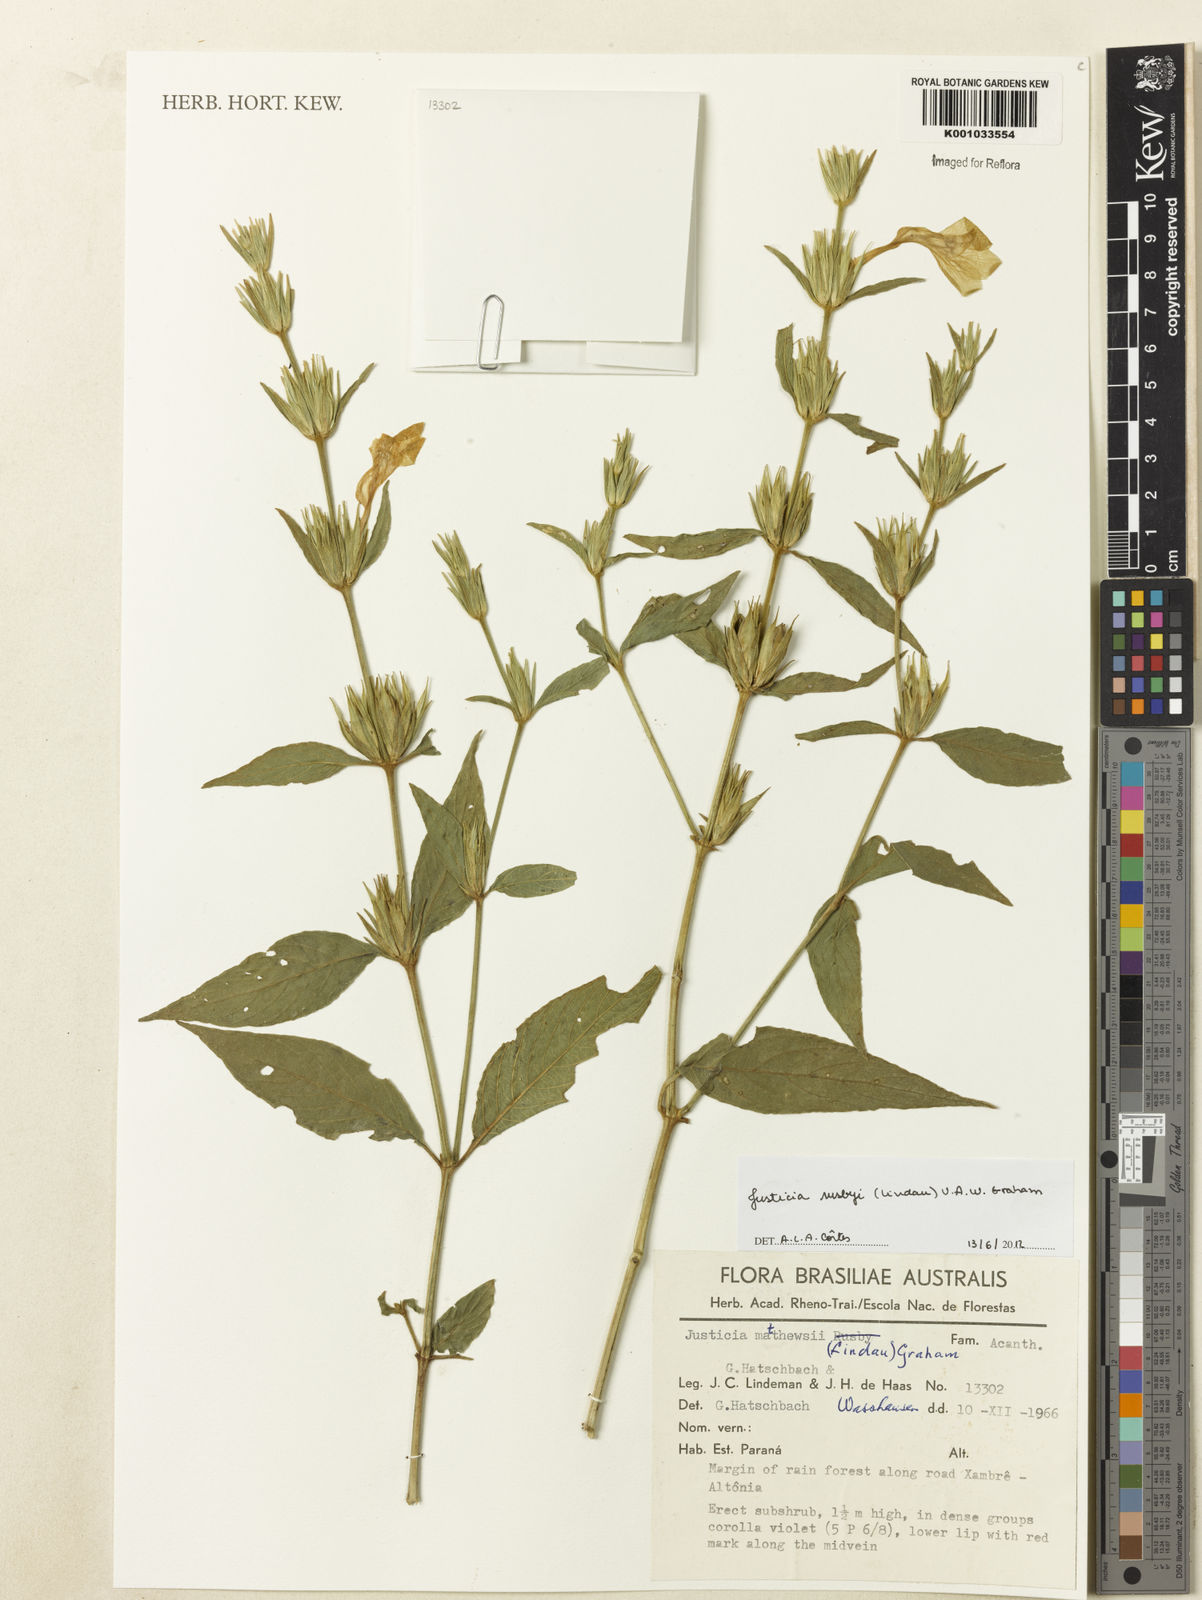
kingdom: Plantae
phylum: Tracheophyta
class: Magnoliopsida
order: Lamiales
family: Acanthaceae
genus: Justicia
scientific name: Justicia rusbyi
